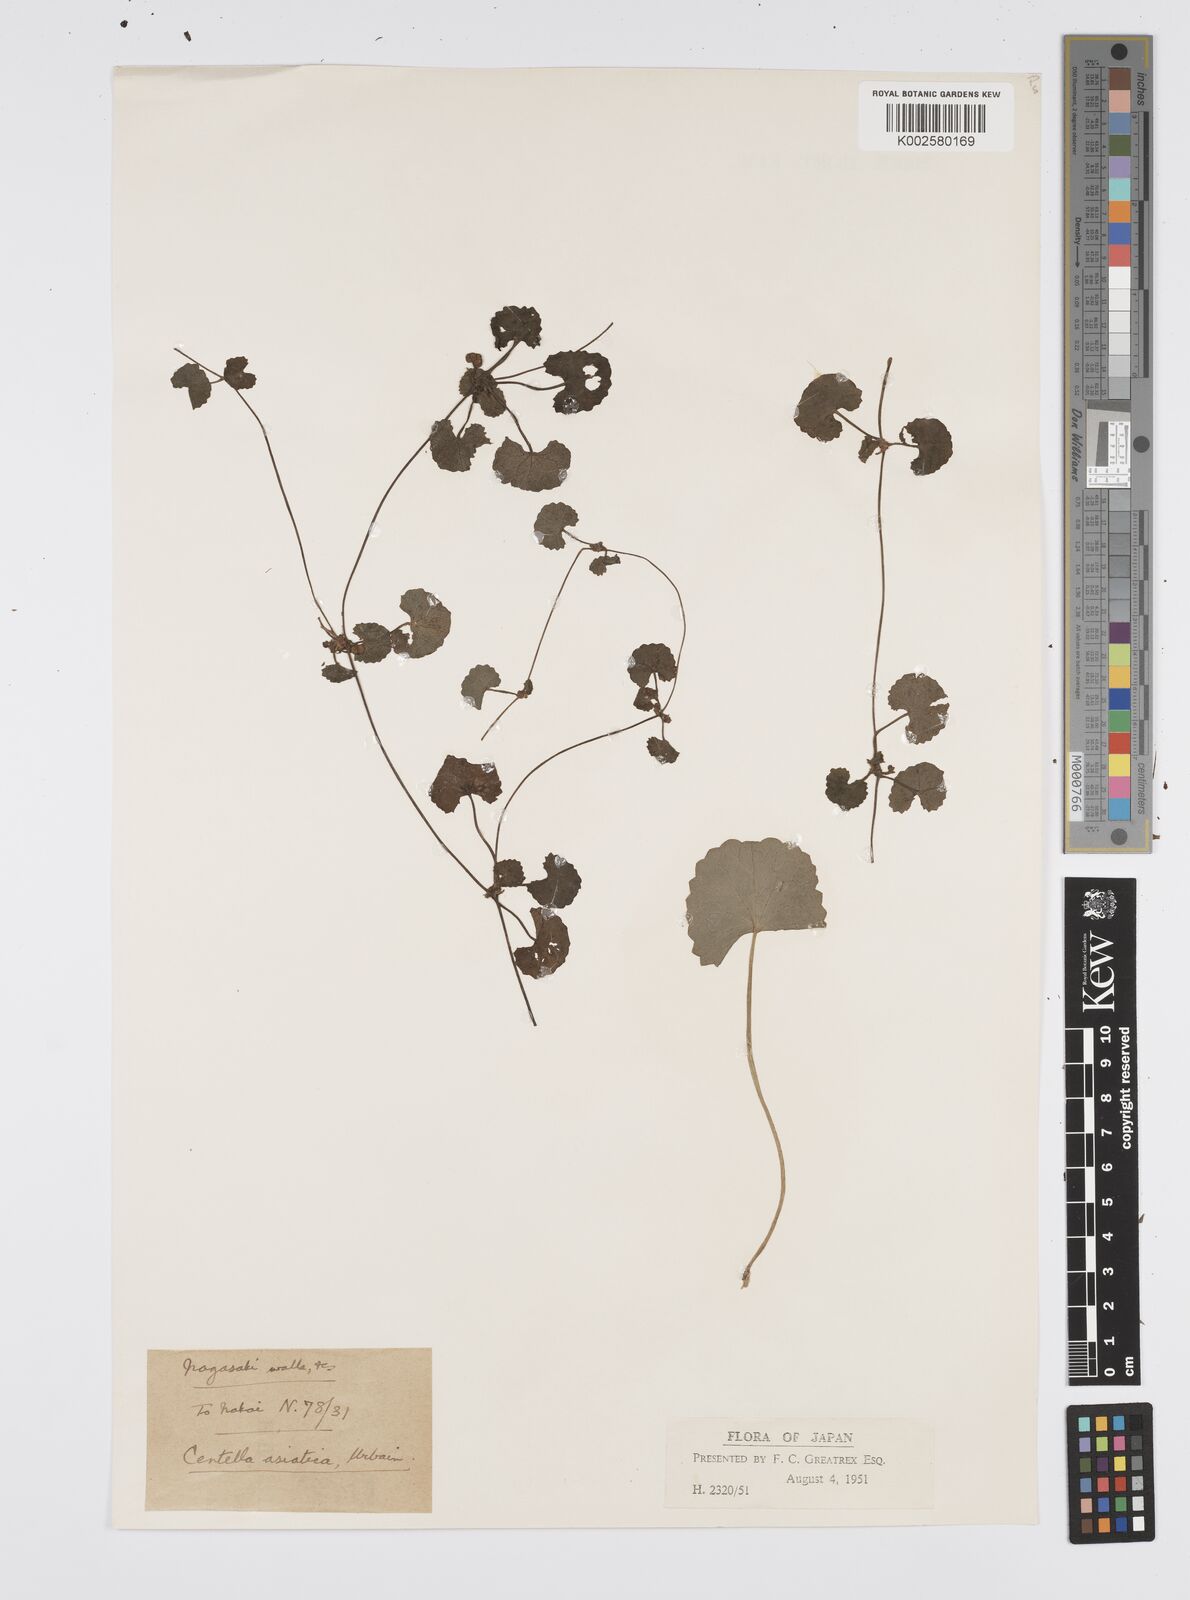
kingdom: Plantae
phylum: Tracheophyta
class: Magnoliopsida
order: Apiales
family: Apiaceae
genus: Centella
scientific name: Centella asiatica
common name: Spadeleaf
